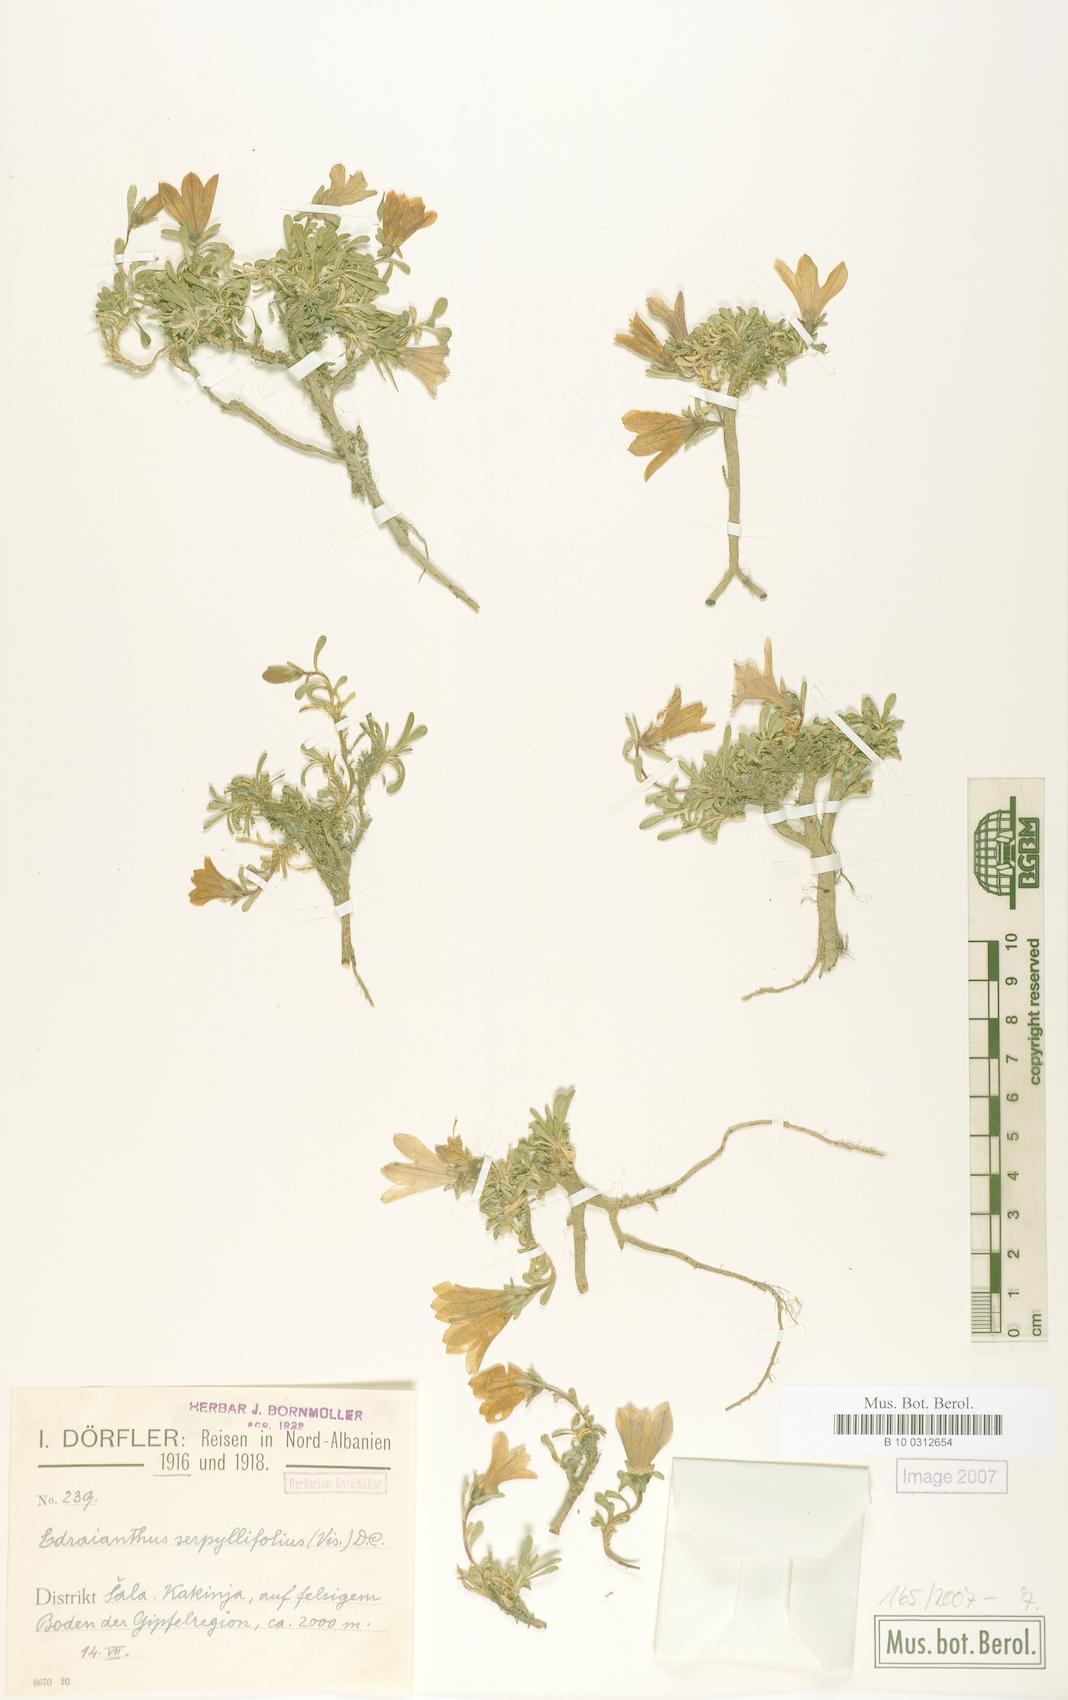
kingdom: Plantae
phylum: Tracheophyta
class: Magnoliopsida
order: Asterales
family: Campanulaceae
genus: Edraianthus
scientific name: Edraianthus serpyllifolius
